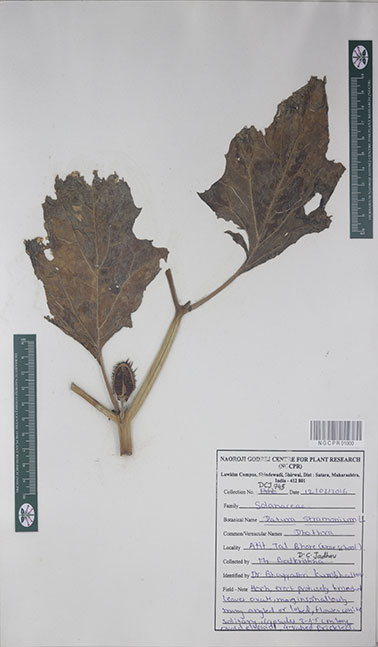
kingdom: Plantae
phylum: Tracheophyta
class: Magnoliopsida
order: Solanales
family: Solanaceae
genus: Datura
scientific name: Datura stramonium
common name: Thorn-apple
